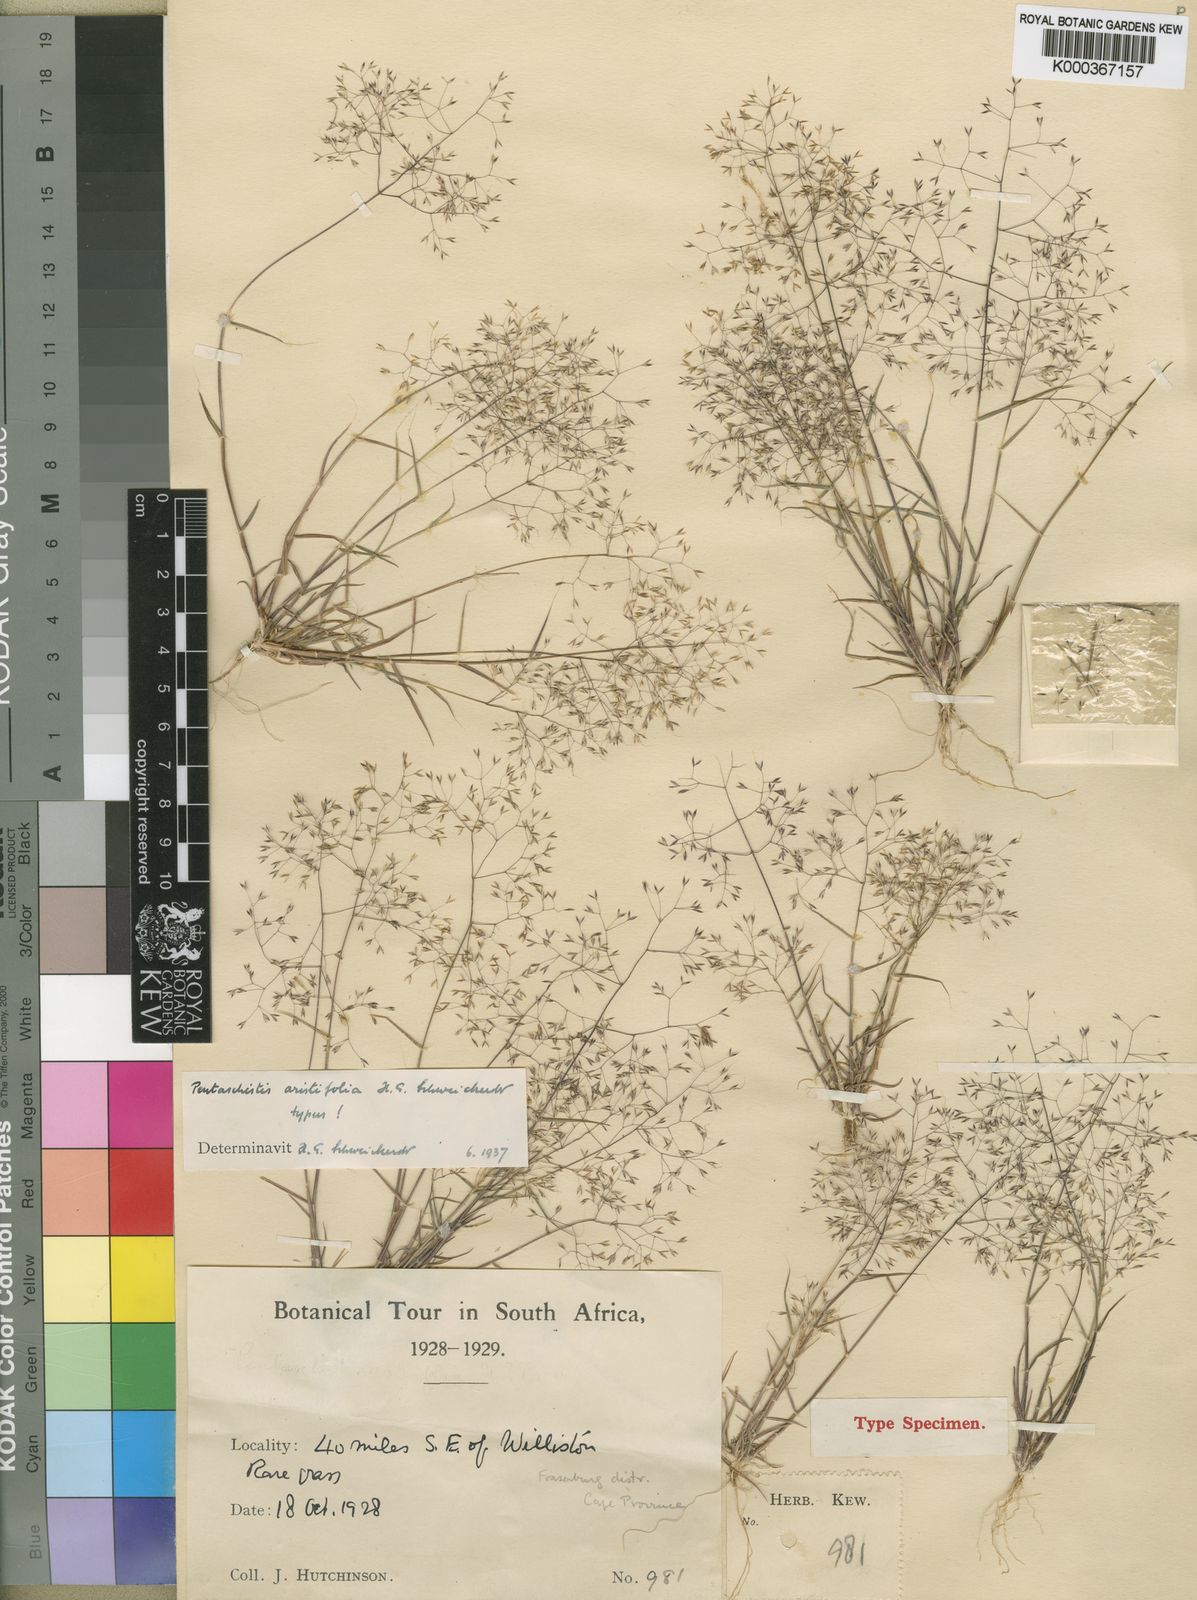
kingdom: Plantae
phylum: Tracheophyta
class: Liliopsida
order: Poales
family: Poaceae
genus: Pentameris
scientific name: Pentameris aristifolia
